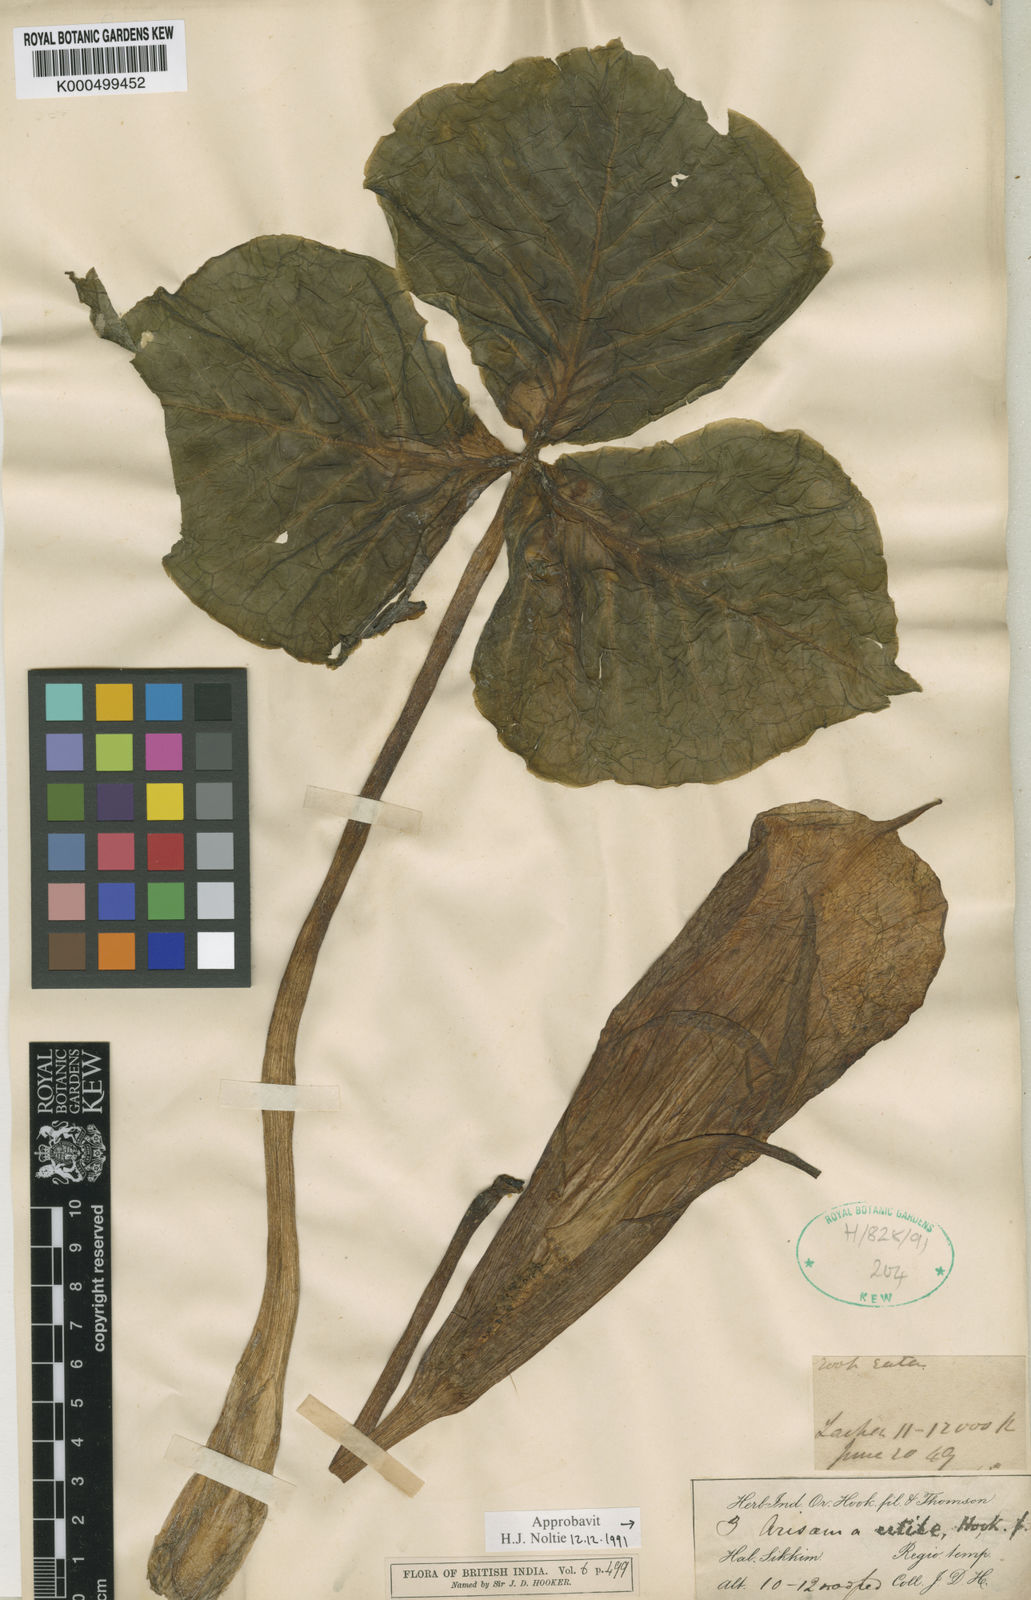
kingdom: Plantae
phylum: Tracheophyta
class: Liliopsida
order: Alismatales
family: Araceae
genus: Arisaema
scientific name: Arisaema propinquum
